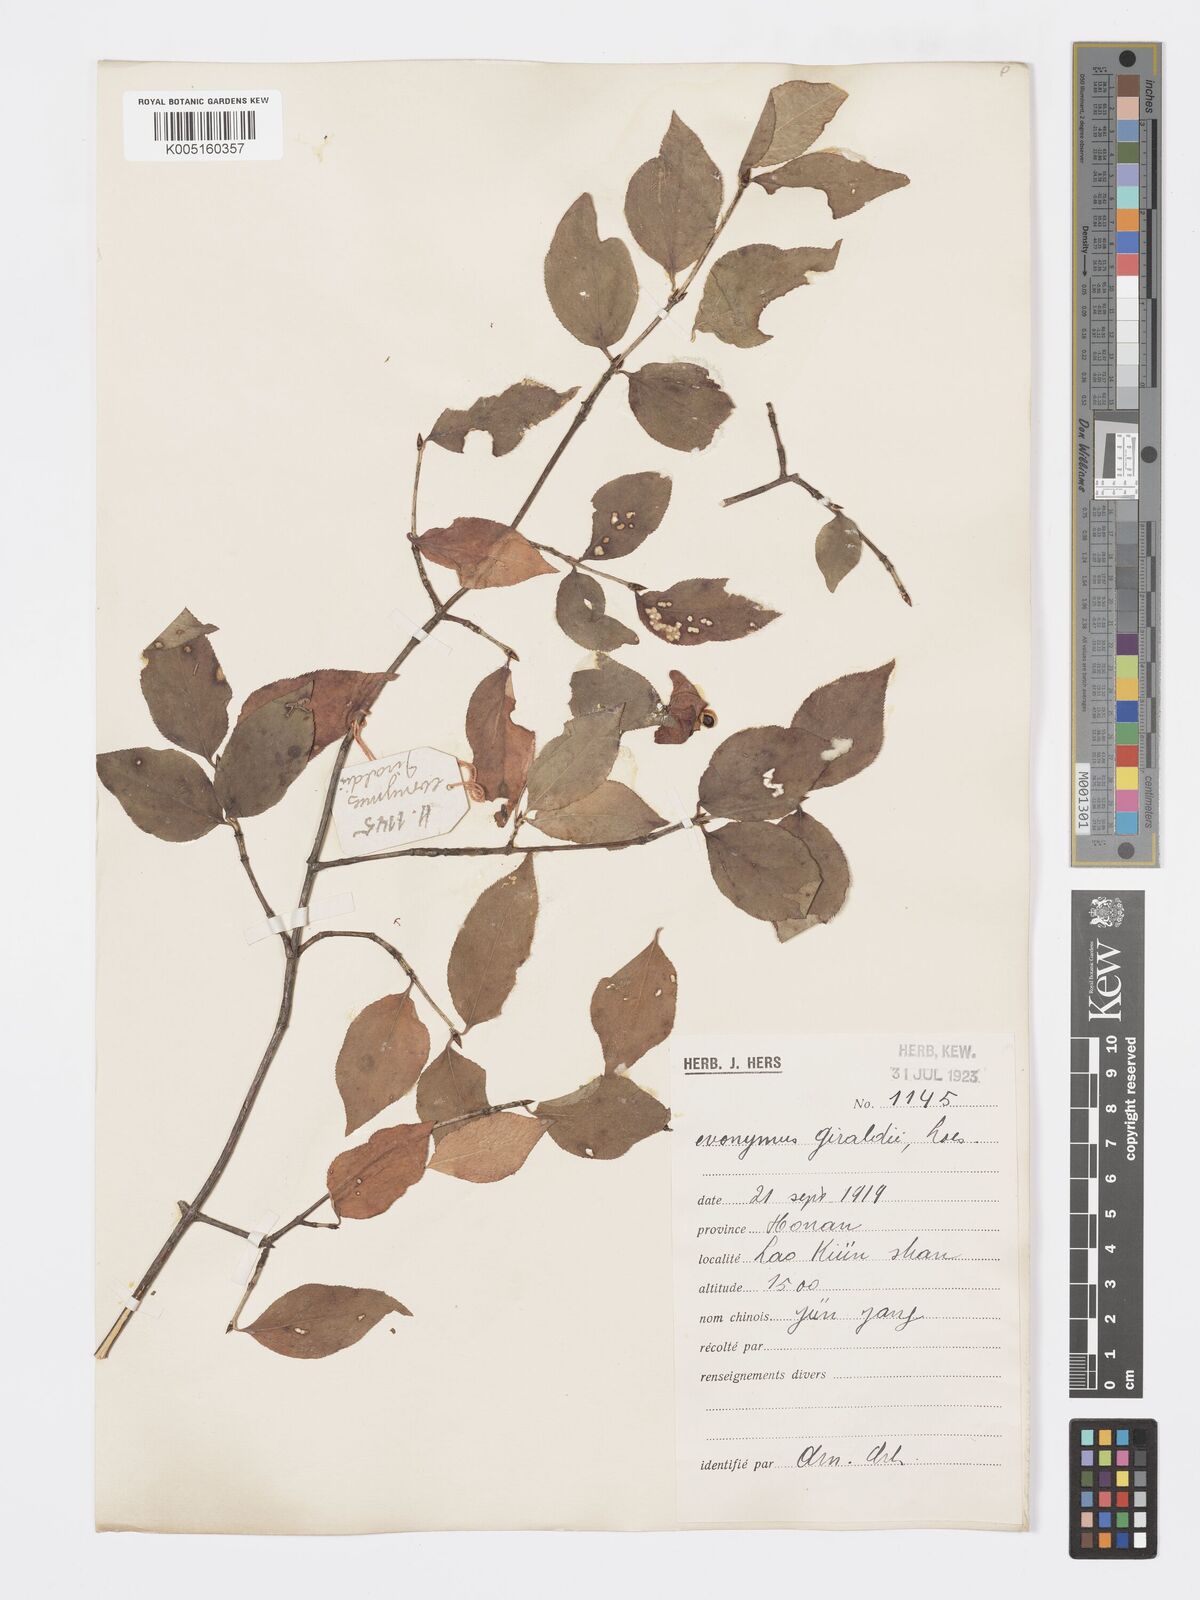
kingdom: Plantae
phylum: Tracheophyta
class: Magnoliopsida
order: Celastrales
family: Celastraceae
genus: Euonymus
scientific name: Euonymus sanguineus
